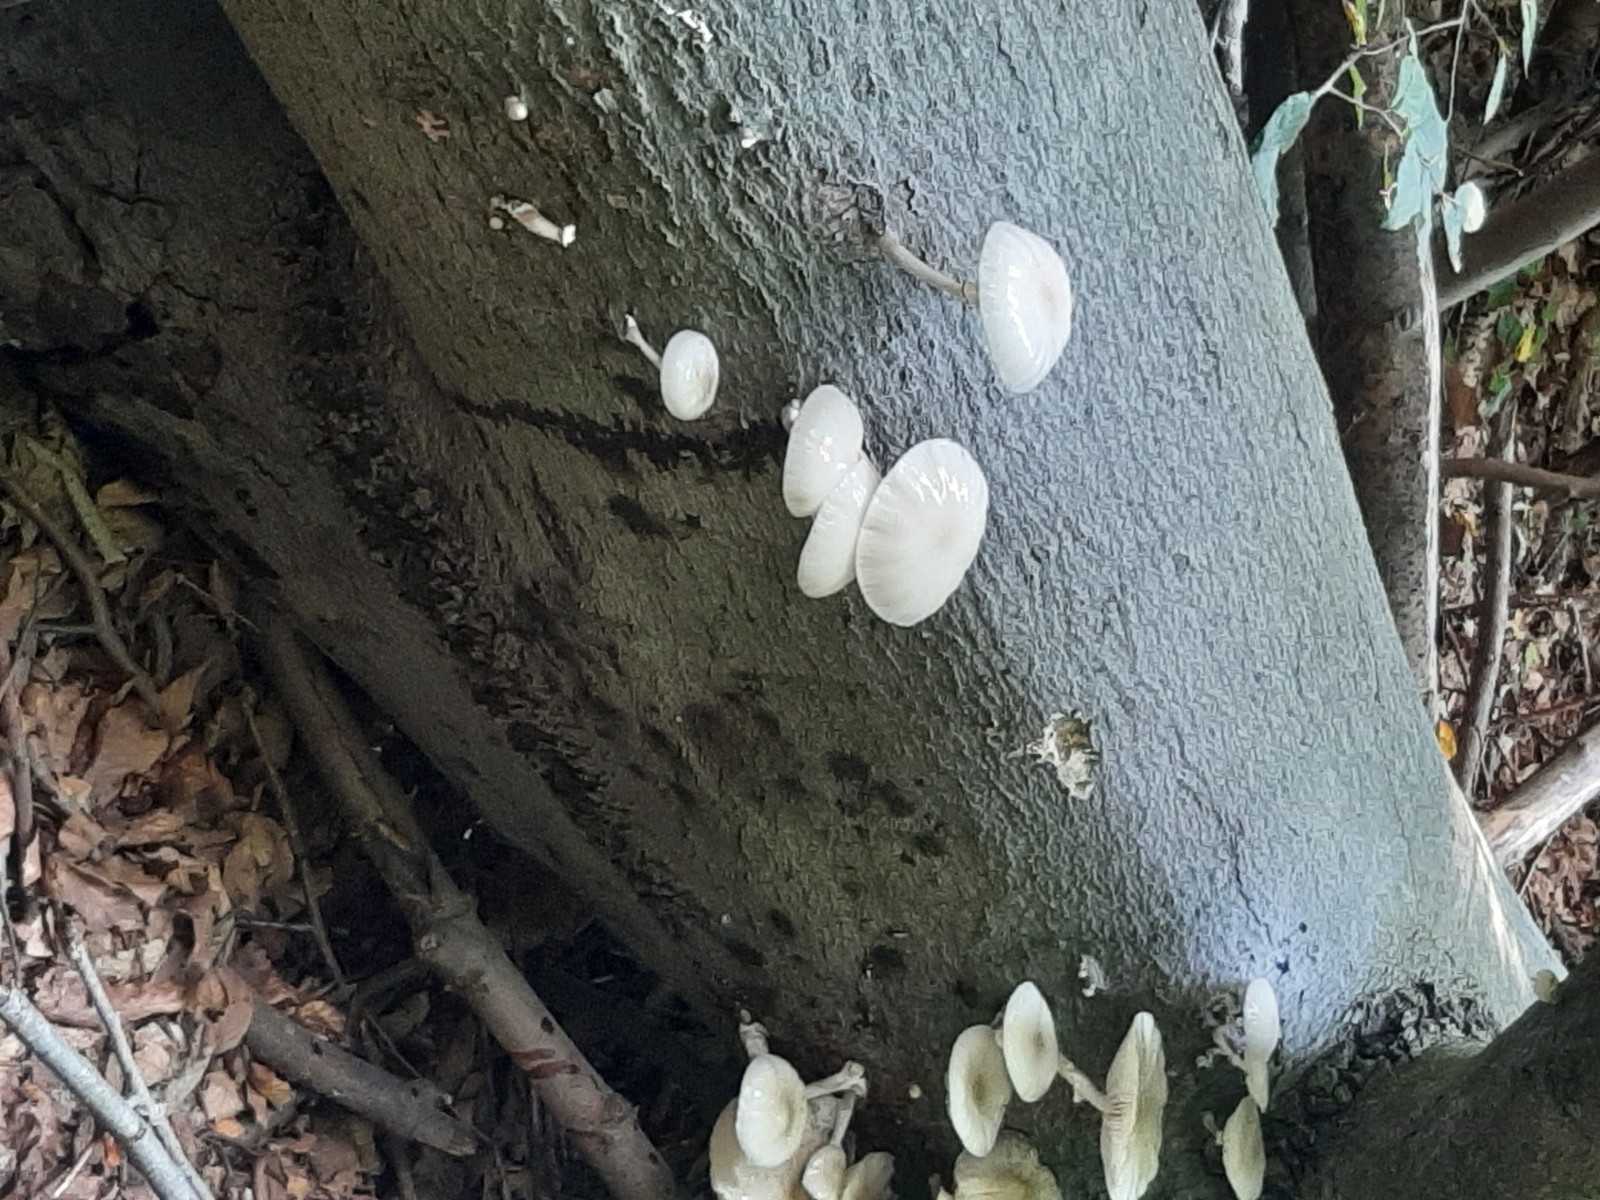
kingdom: Fungi
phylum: Basidiomycota
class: Agaricomycetes
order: Agaricales
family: Physalacriaceae
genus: Mucidula
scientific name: Mucidula mucida
